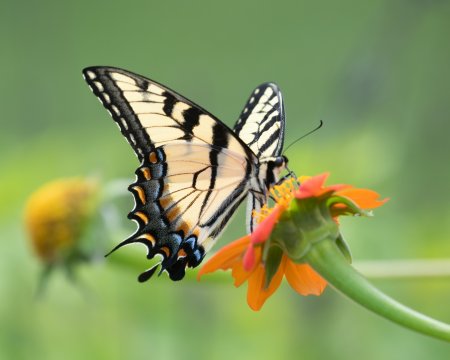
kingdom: Animalia
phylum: Arthropoda
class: Insecta
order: Lepidoptera
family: Papilionidae
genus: Pterourus
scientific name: Pterourus glaucus
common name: Eastern Tiger Swallowtail
